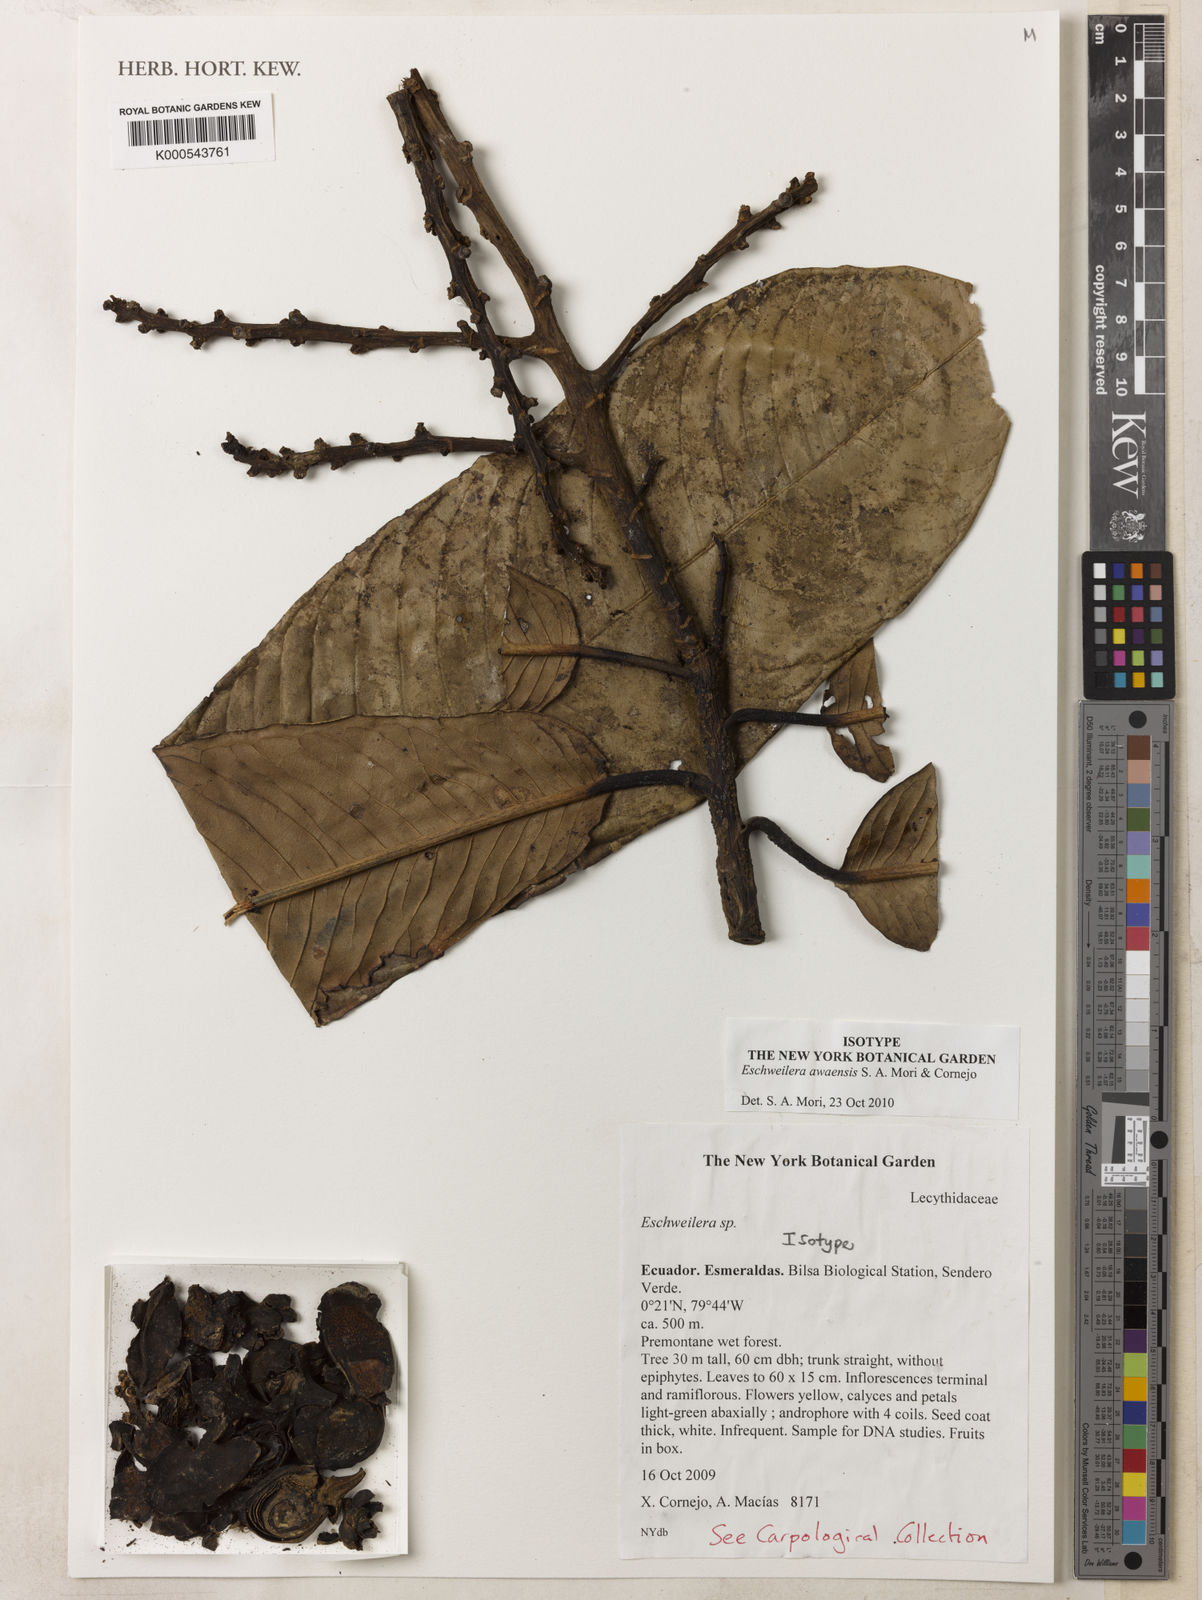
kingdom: Plantae
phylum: Tracheophyta
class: Magnoliopsida
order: Ericales
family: Lecythidaceae
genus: Eschweilera
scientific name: Eschweilera awaensis
